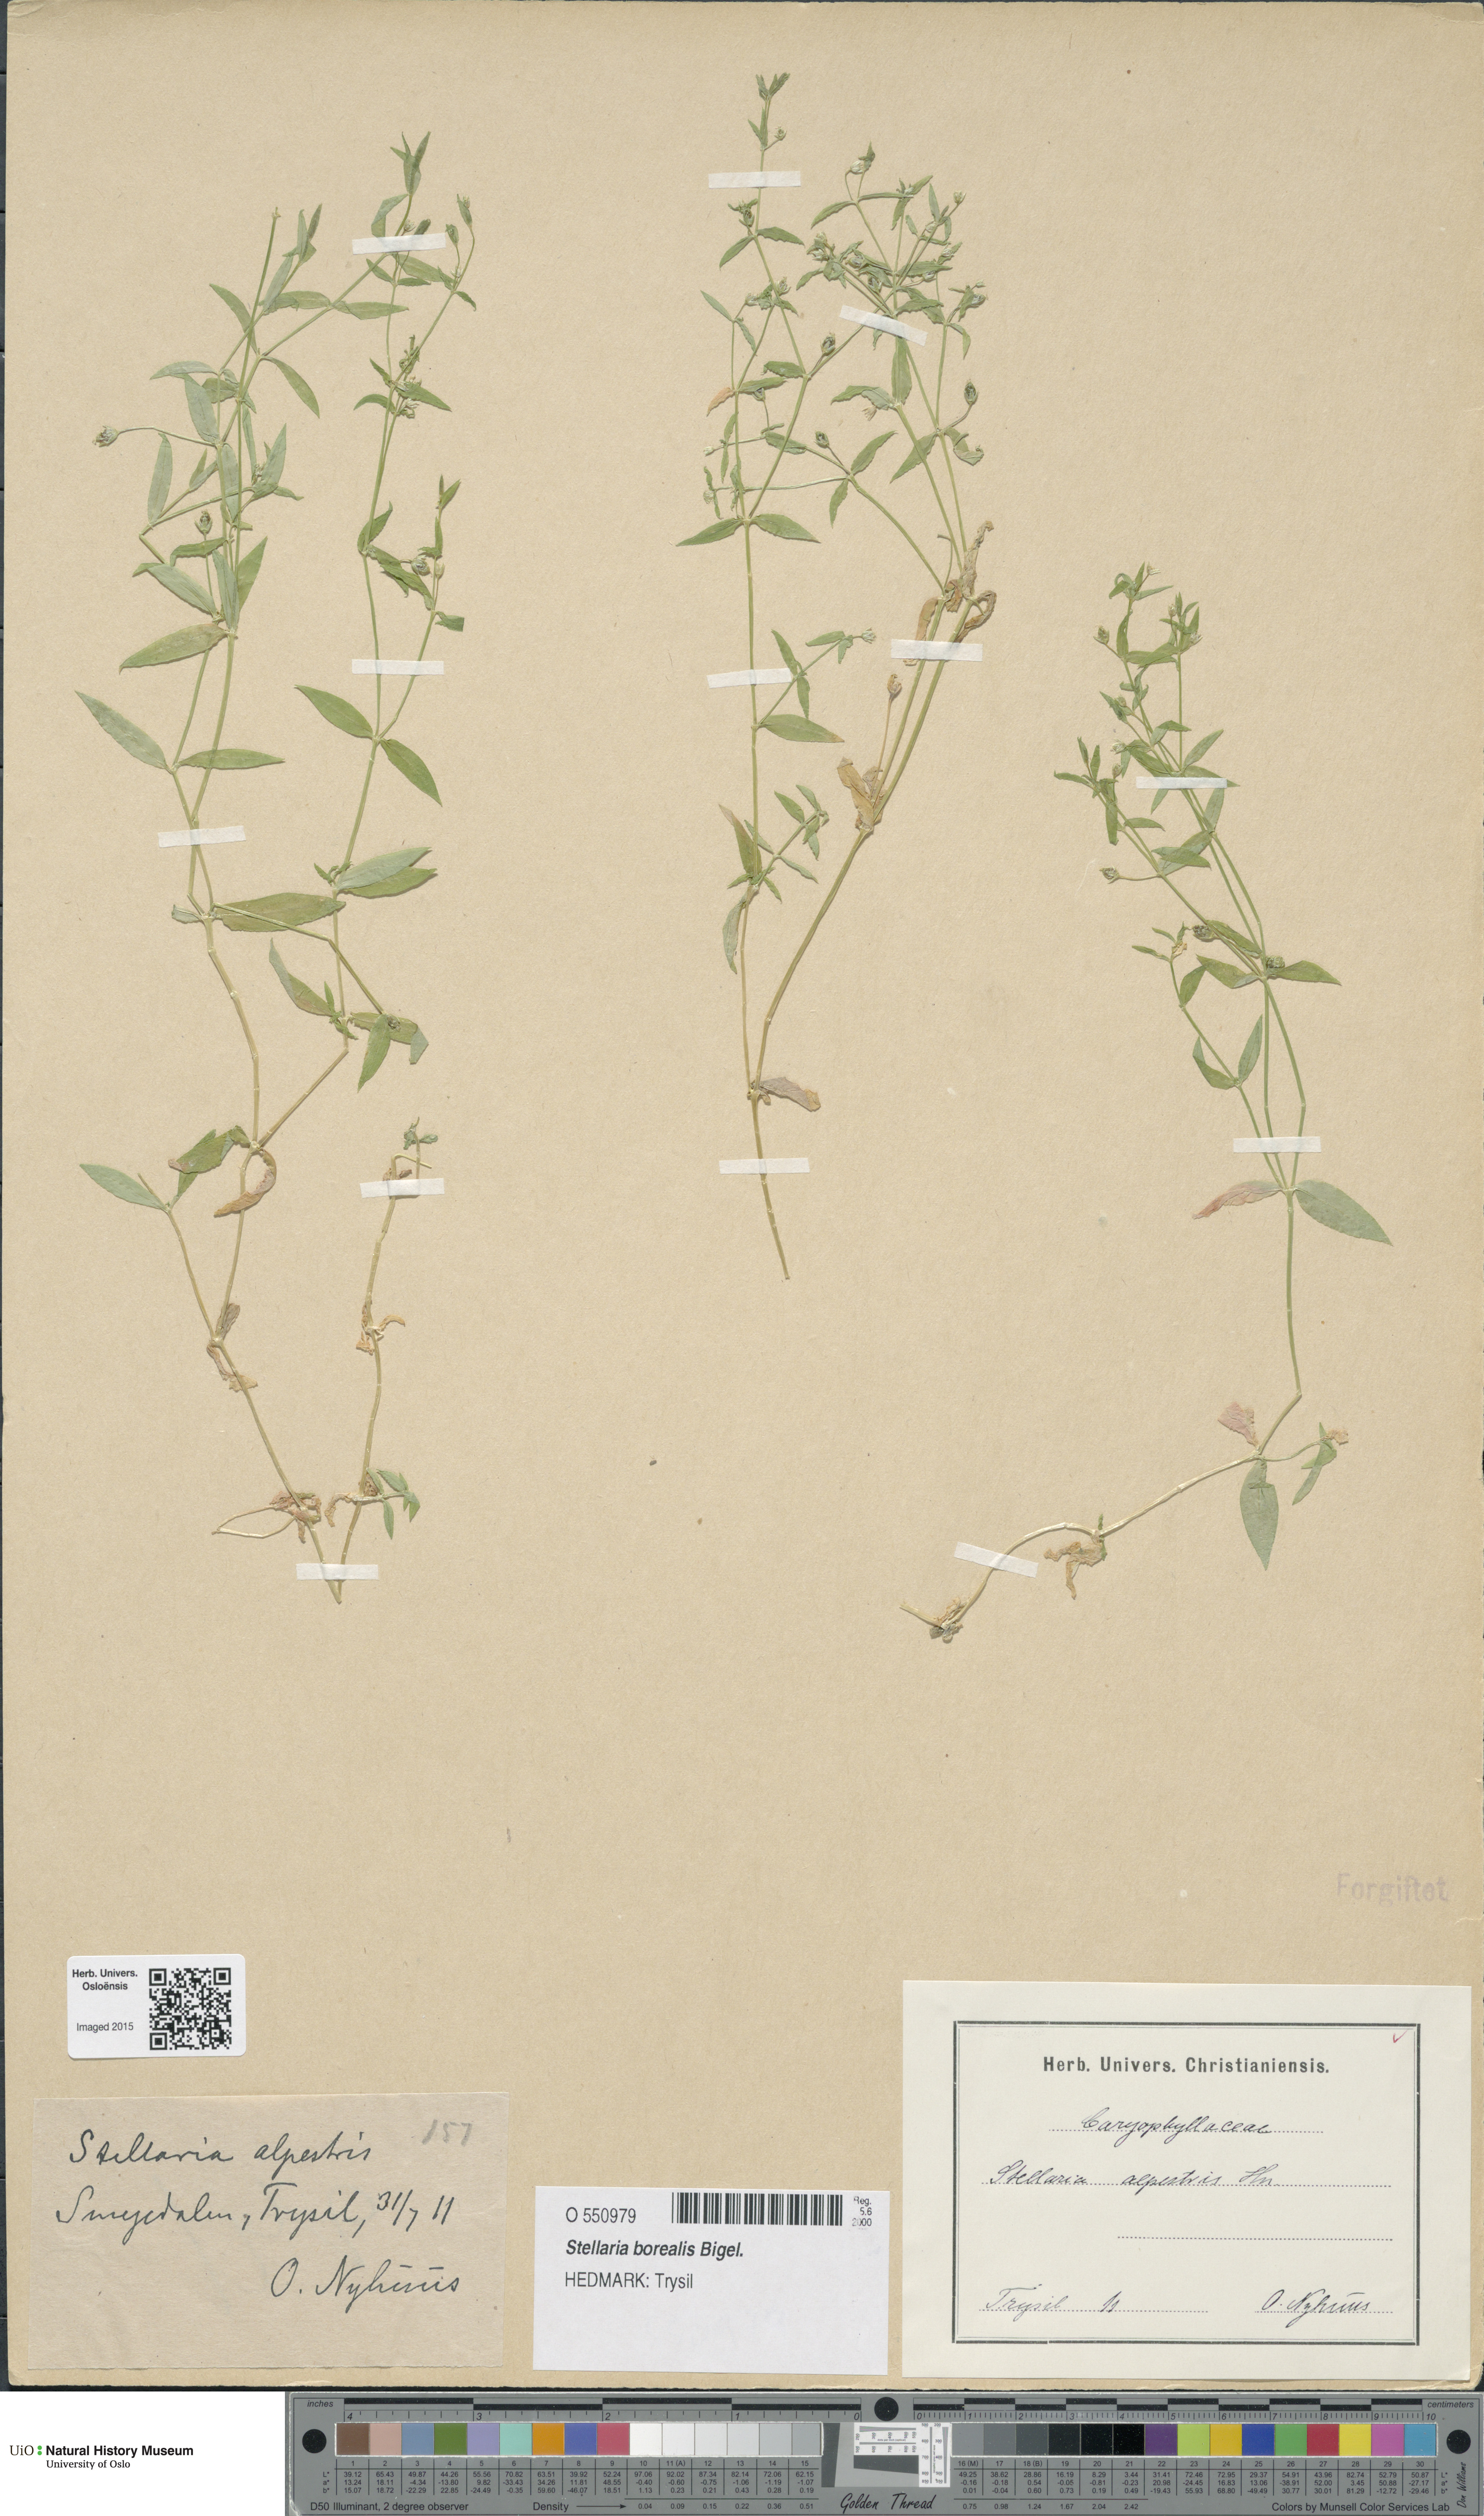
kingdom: Plantae
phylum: Tracheophyta
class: Magnoliopsida
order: Caryophyllales
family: Caryophyllaceae
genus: Stellaria
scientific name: Stellaria alpestris
